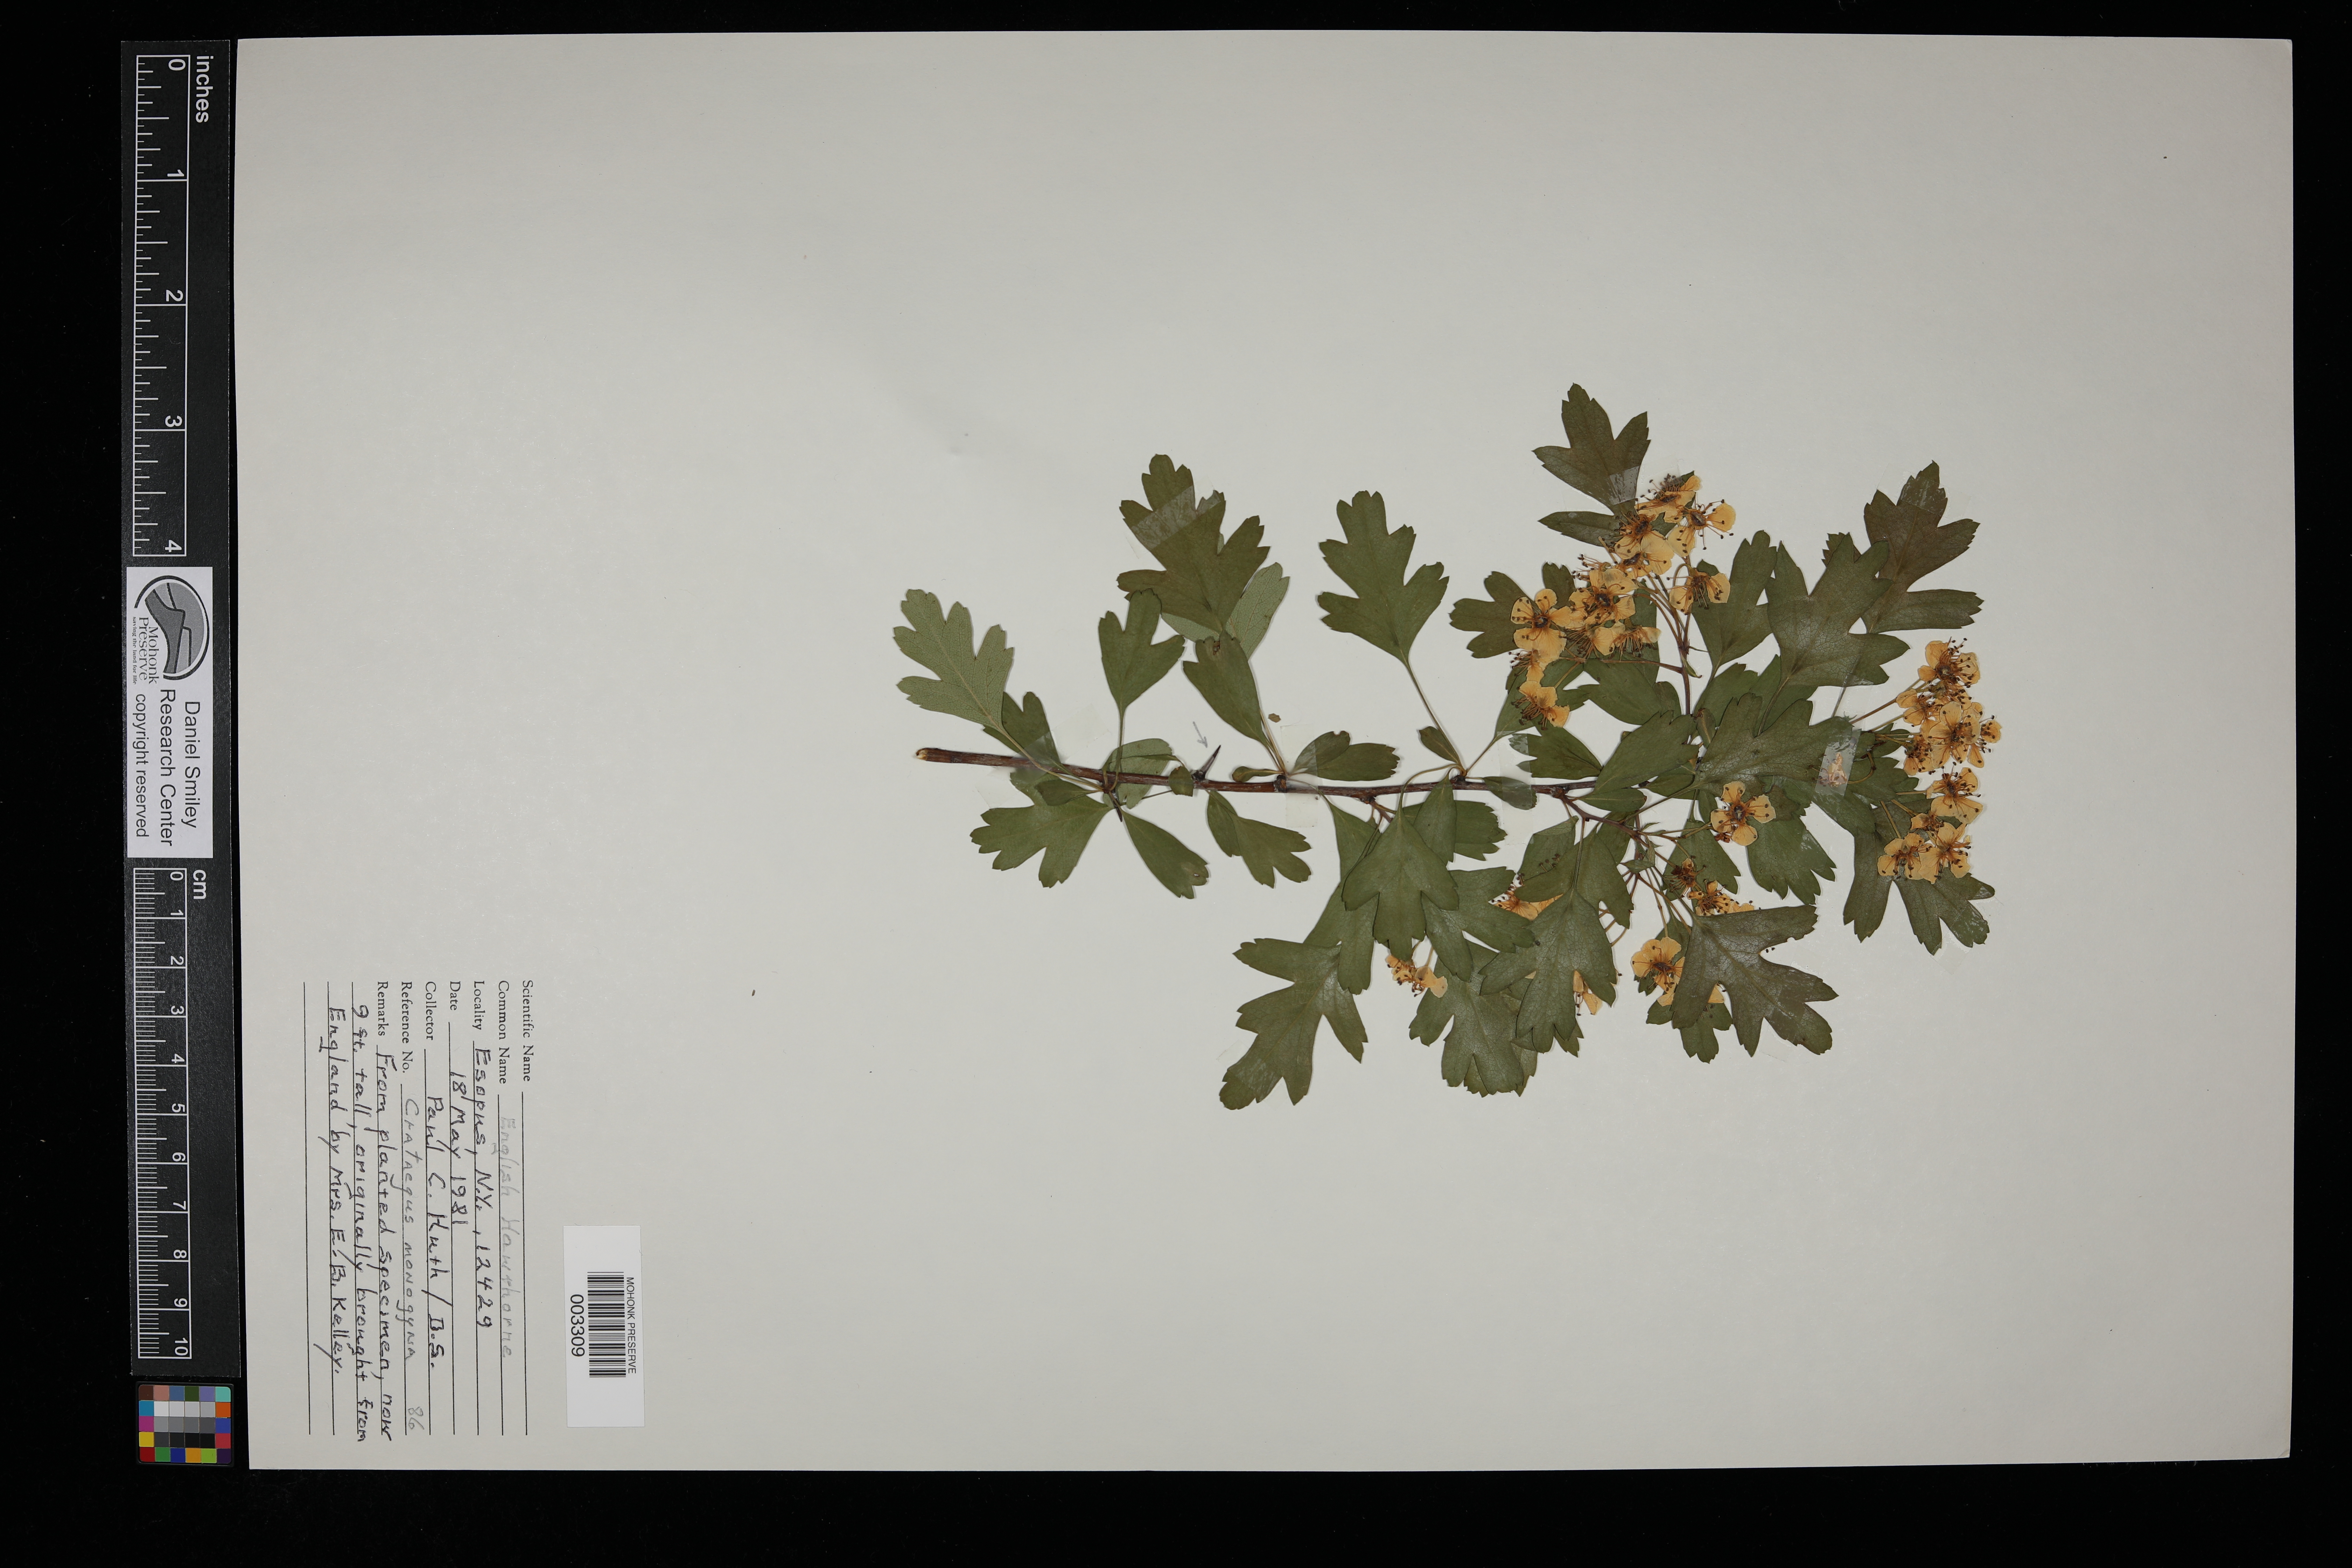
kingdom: Plantae
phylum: Tracheophyta
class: Magnoliopsida
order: Rosales
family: Rosaceae
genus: Crataegus
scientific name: Crataegus monogyna
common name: Hawthorn
